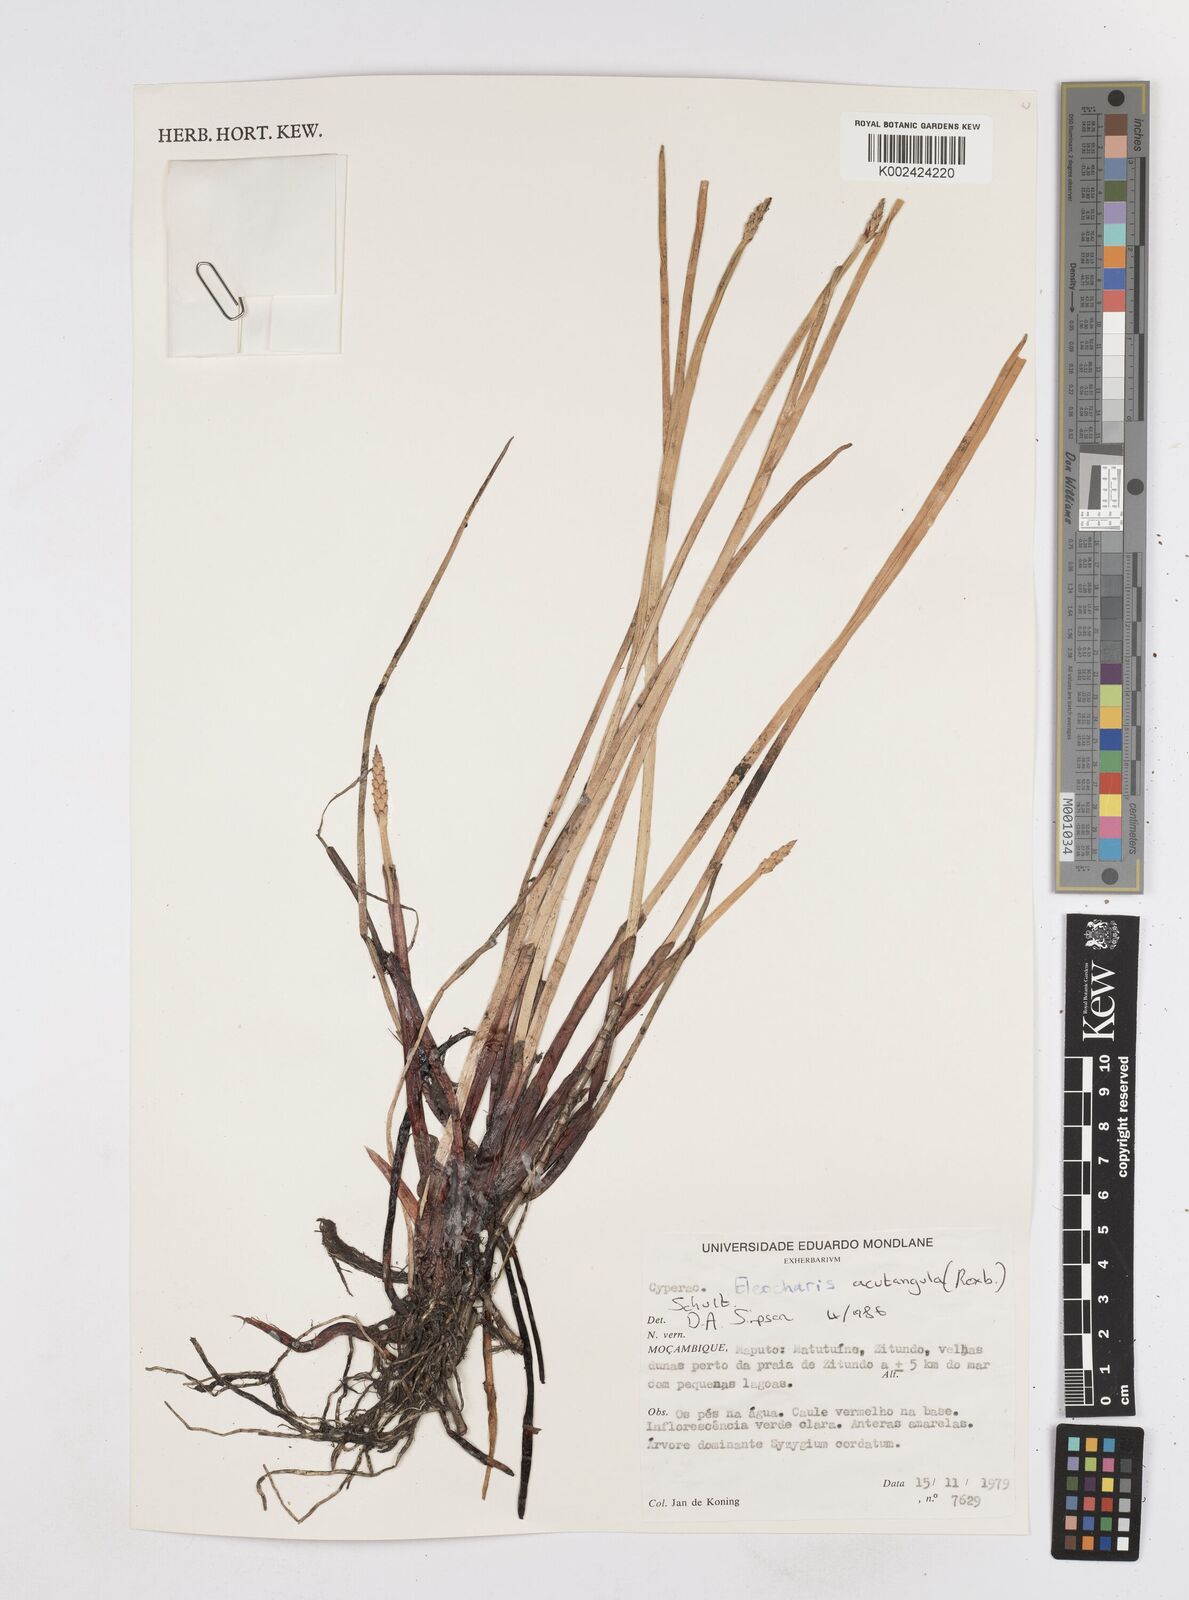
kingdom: Plantae
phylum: Tracheophyta
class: Liliopsida
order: Poales
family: Cyperaceae
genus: Eleocharis
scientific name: Eleocharis acutangula
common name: Acute spikerush
